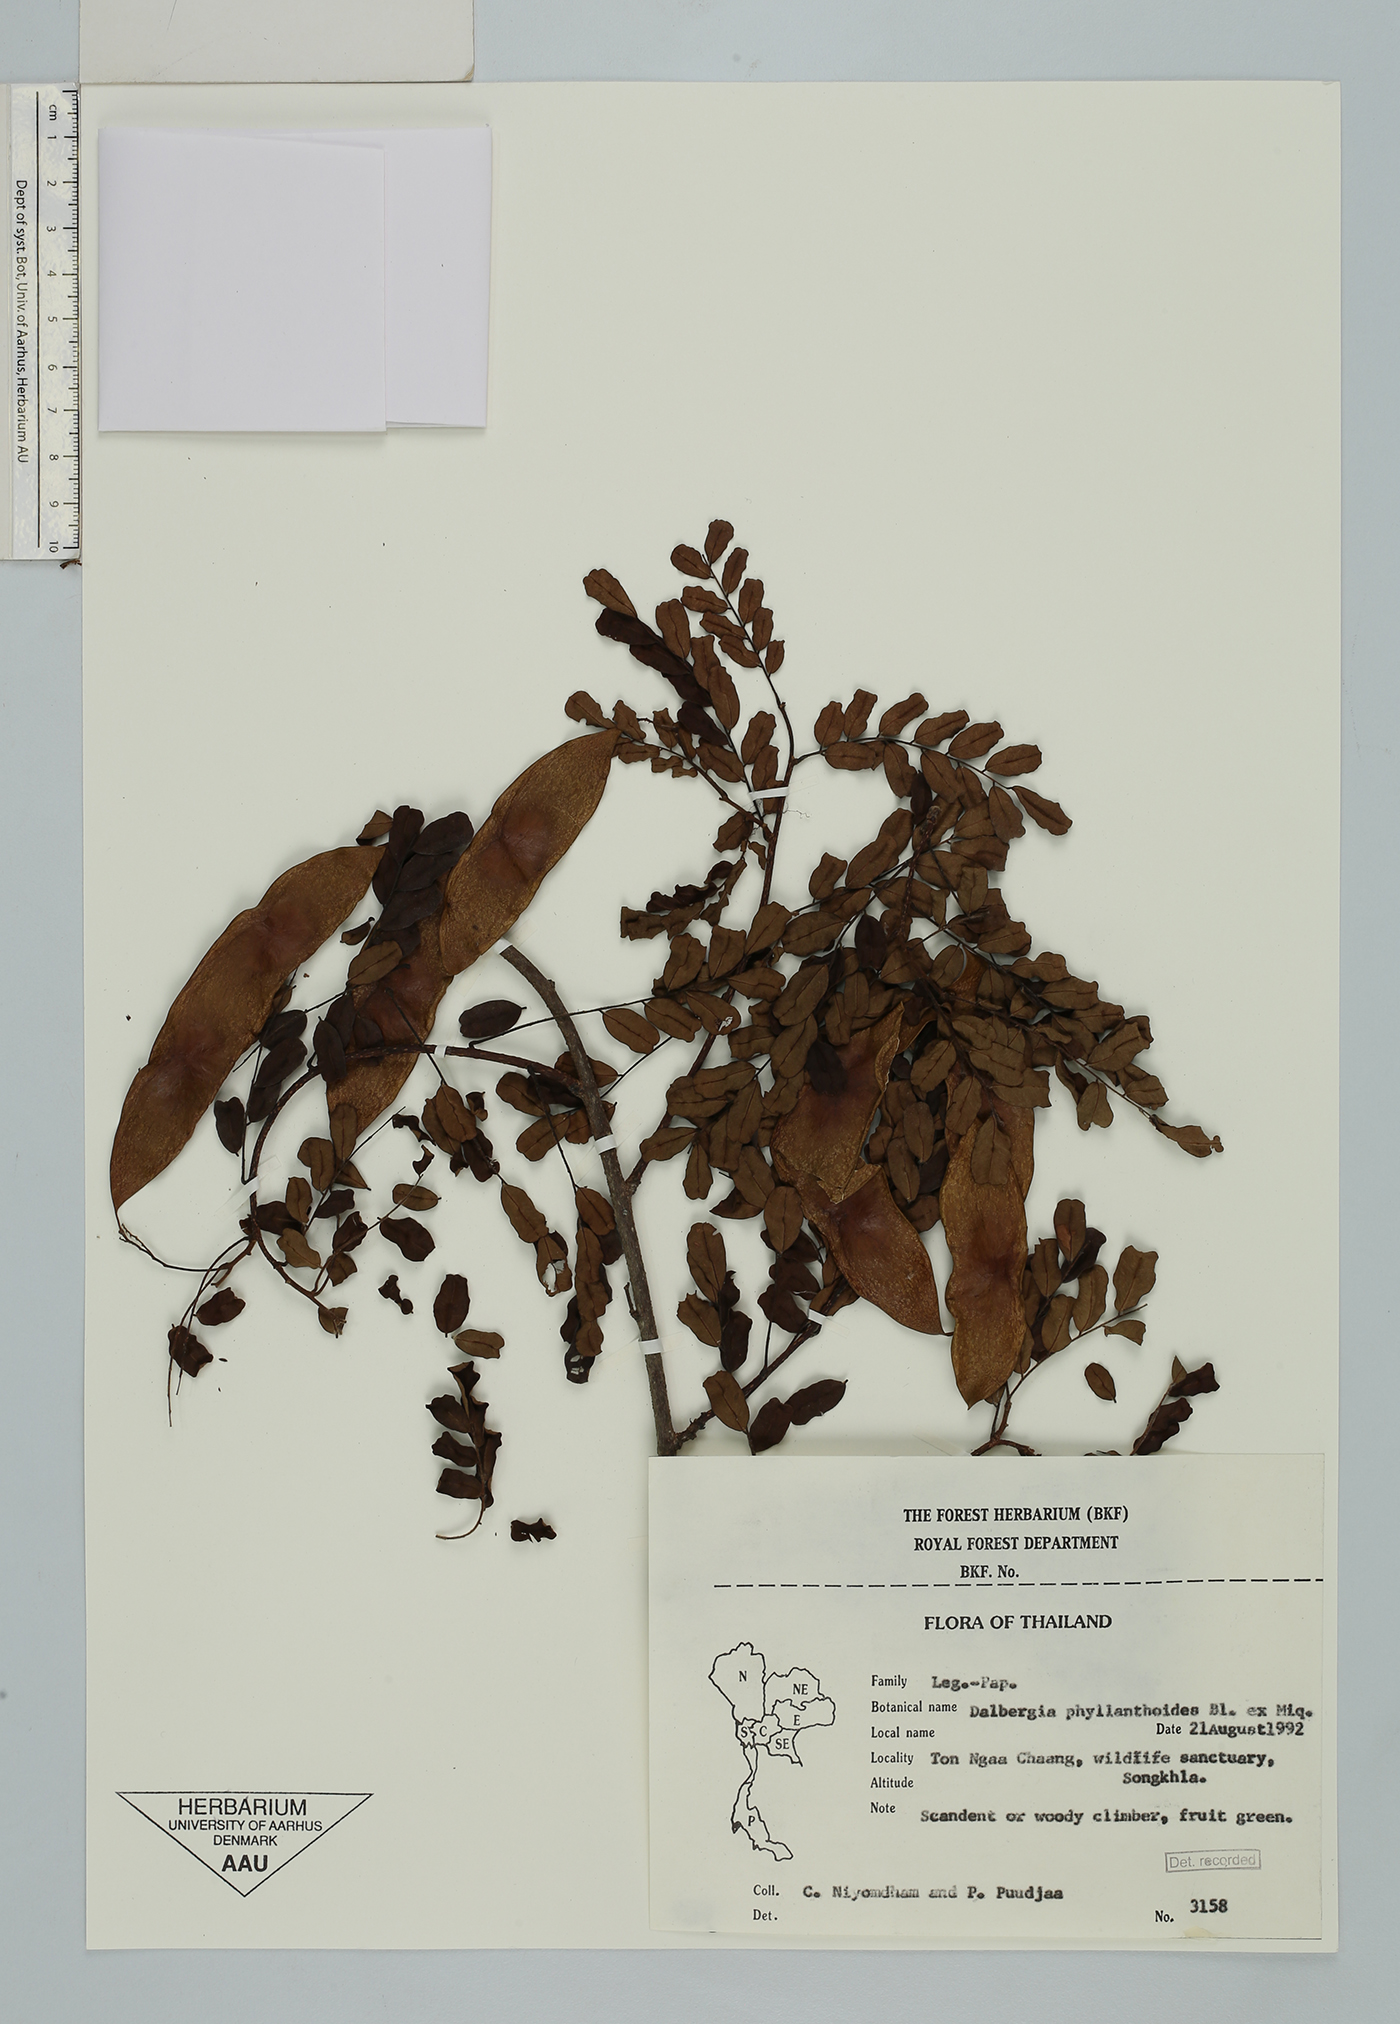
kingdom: Plantae
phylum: Tracheophyta
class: Magnoliopsida
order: Fabales
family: Fabaceae
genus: Dalbergia
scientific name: Dalbergia junghuhnii
